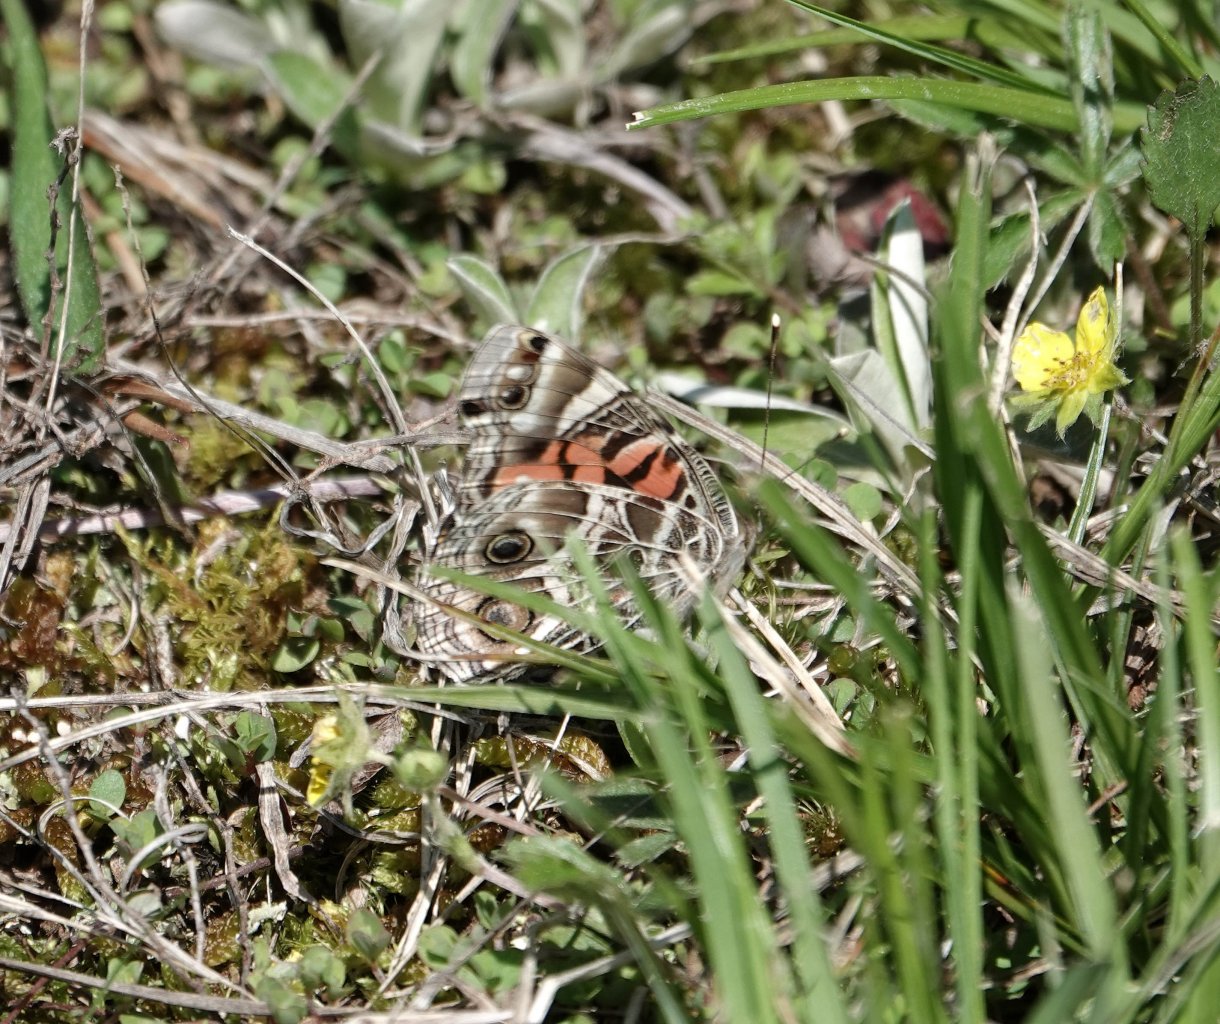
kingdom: Animalia
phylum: Arthropoda
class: Insecta
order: Lepidoptera
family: Nymphalidae
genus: Vanessa
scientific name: Vanessa virginiensis
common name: American Lady
